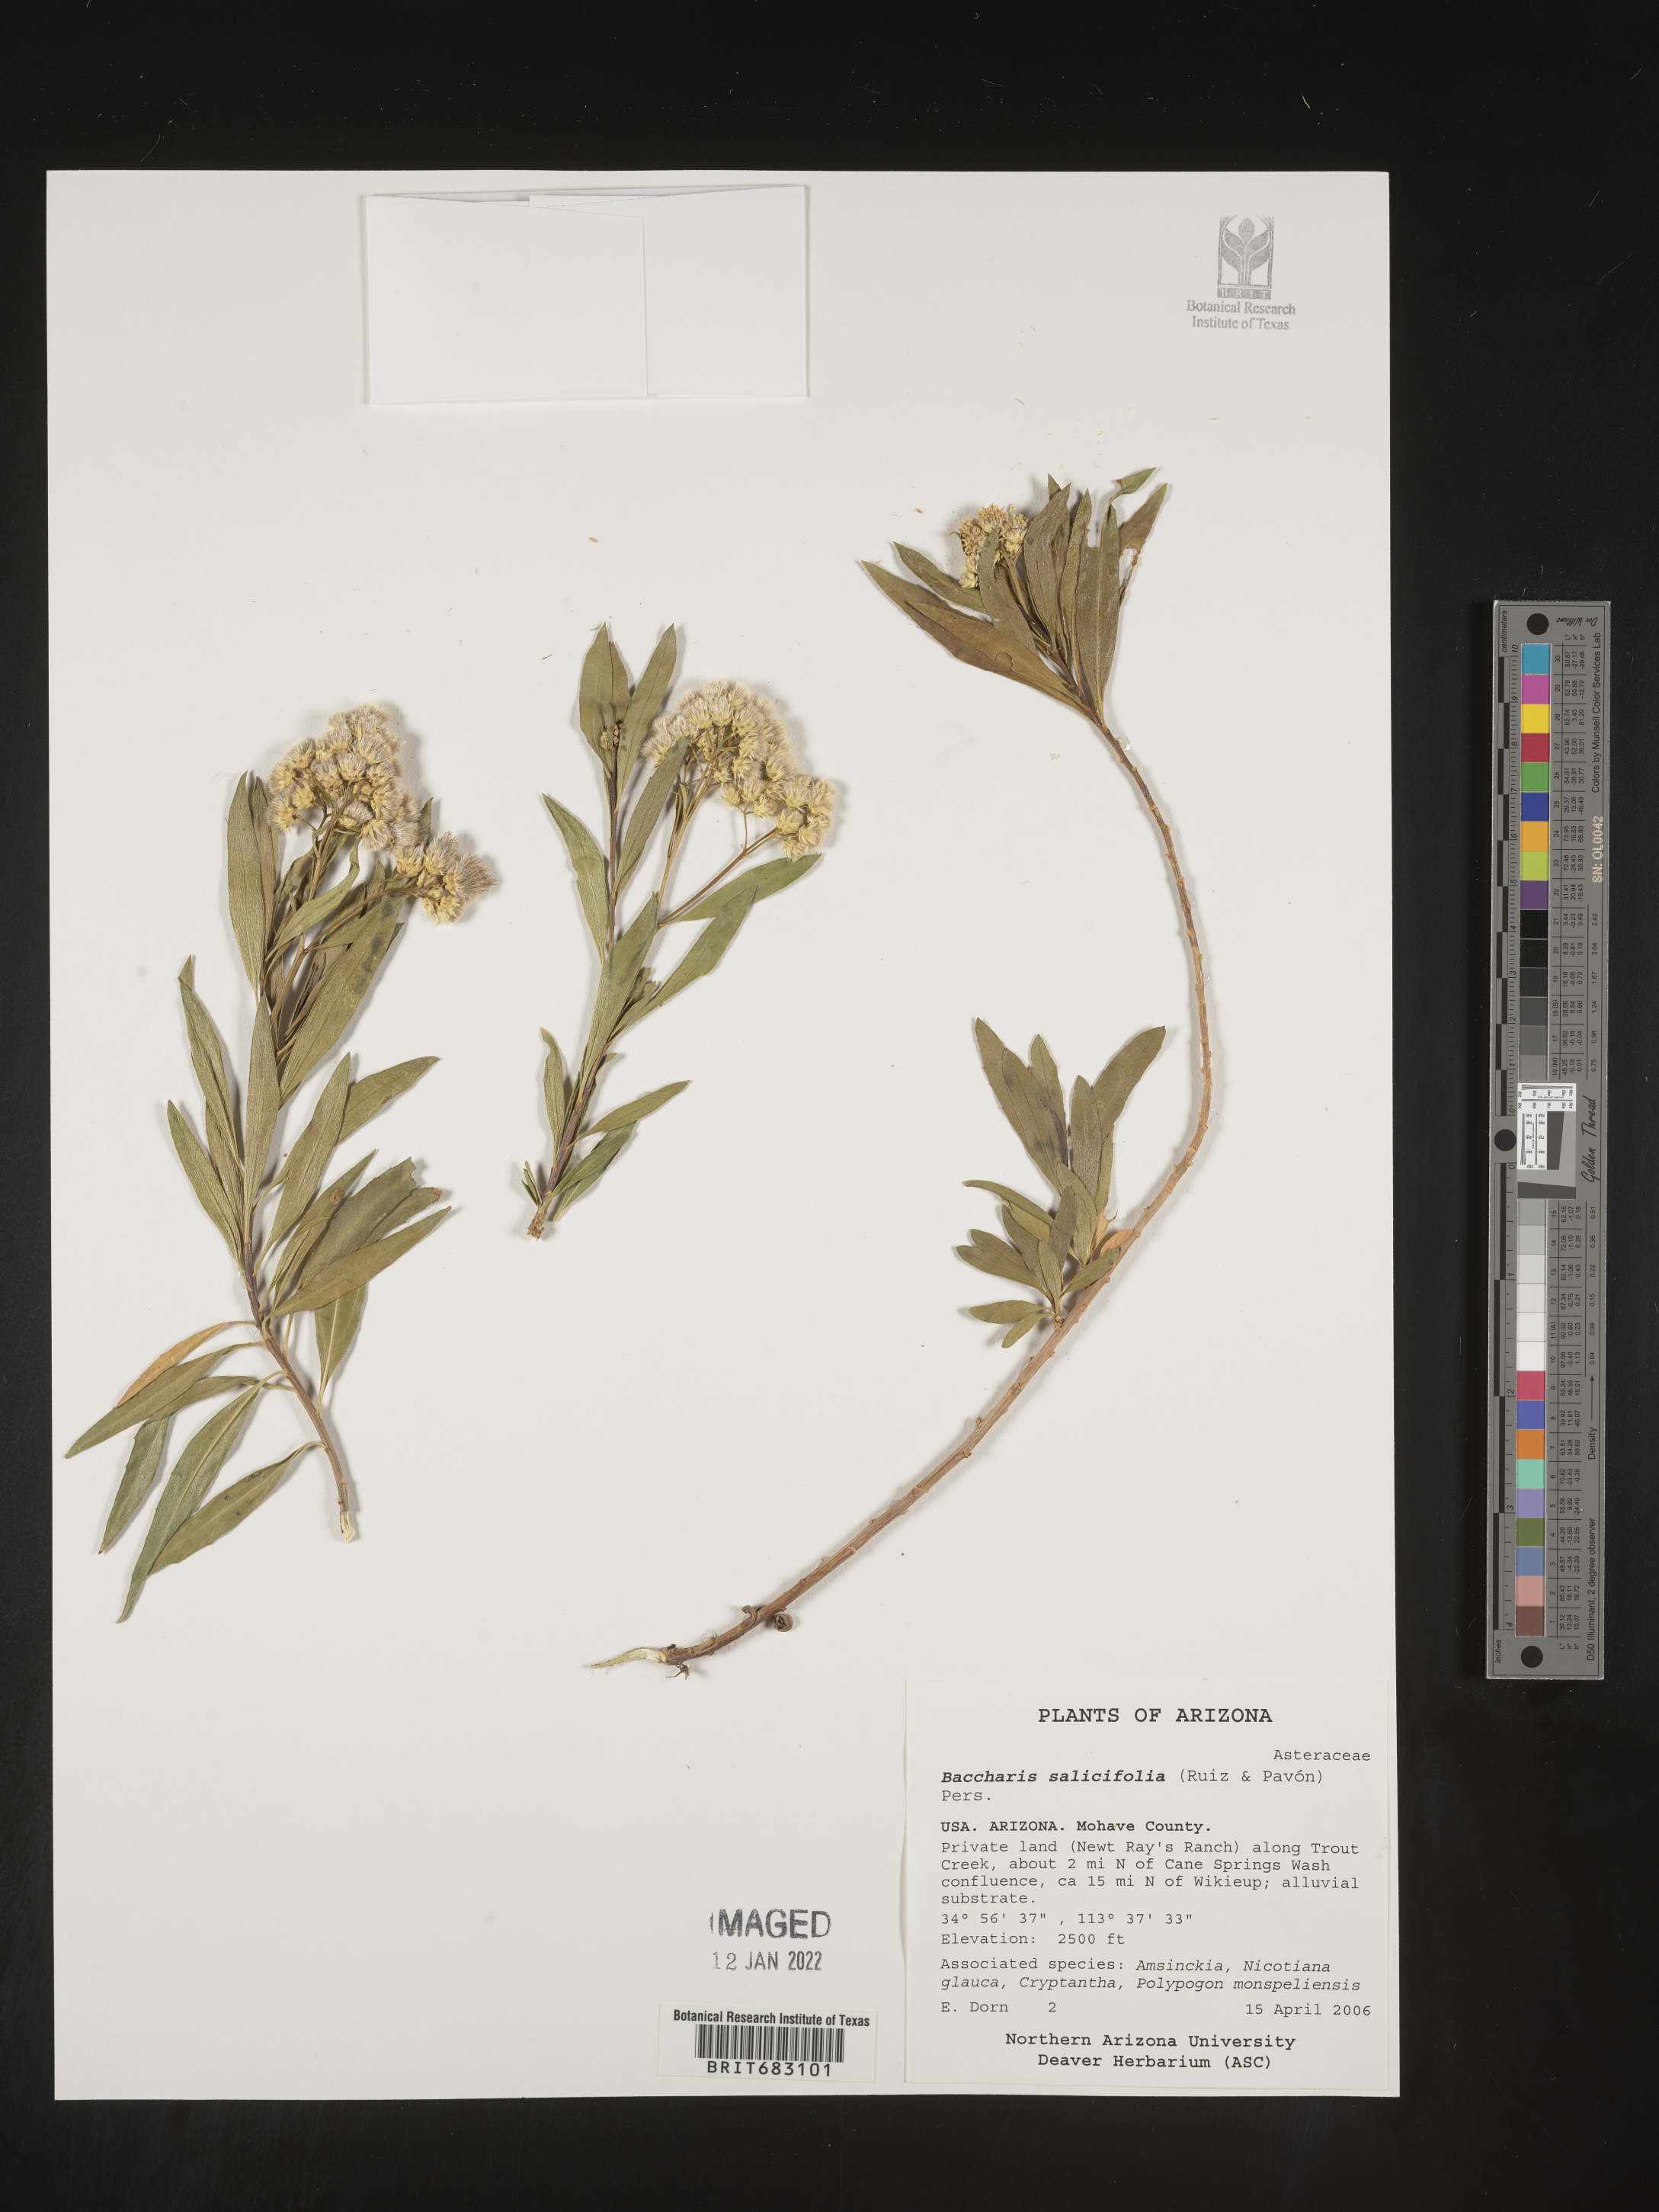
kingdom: Plantae
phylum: Tracheophyta
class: Magnoliopsida
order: Asterales
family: Asteraceae
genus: Baccharis
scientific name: Baccharis salicifolia
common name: Sticky baccharis
